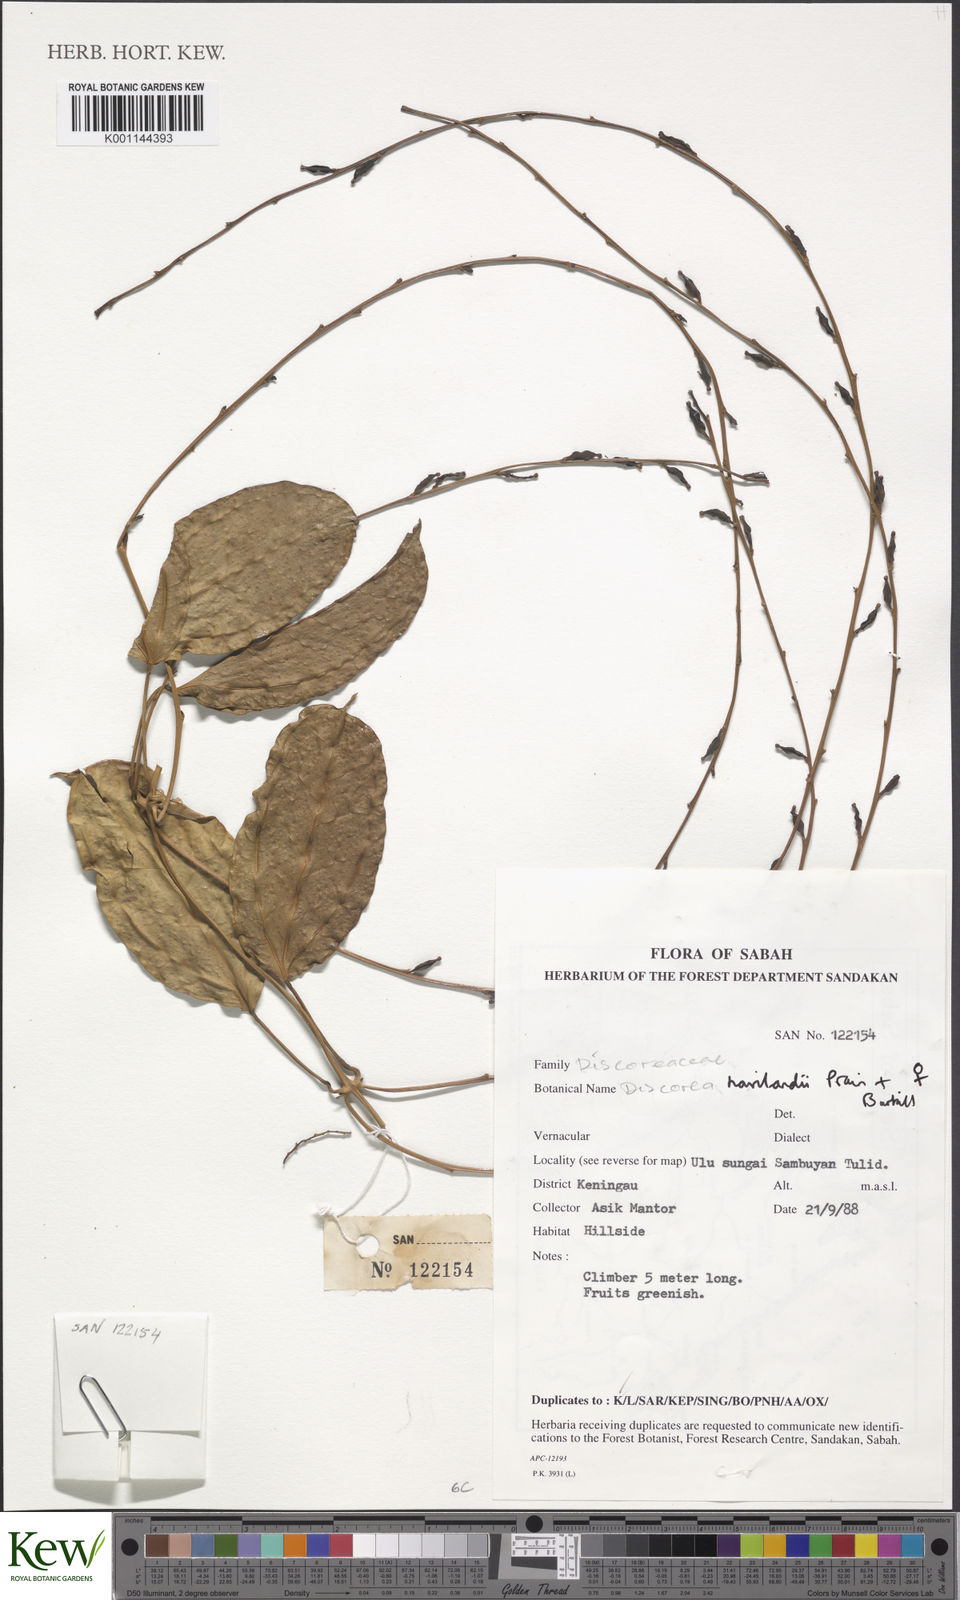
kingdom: Plantae
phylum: Tracheophyta
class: Liliopsida
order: Dioscoreales
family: Dioscoreaceae
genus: Dioscorea
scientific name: Dioscorea havilandii
